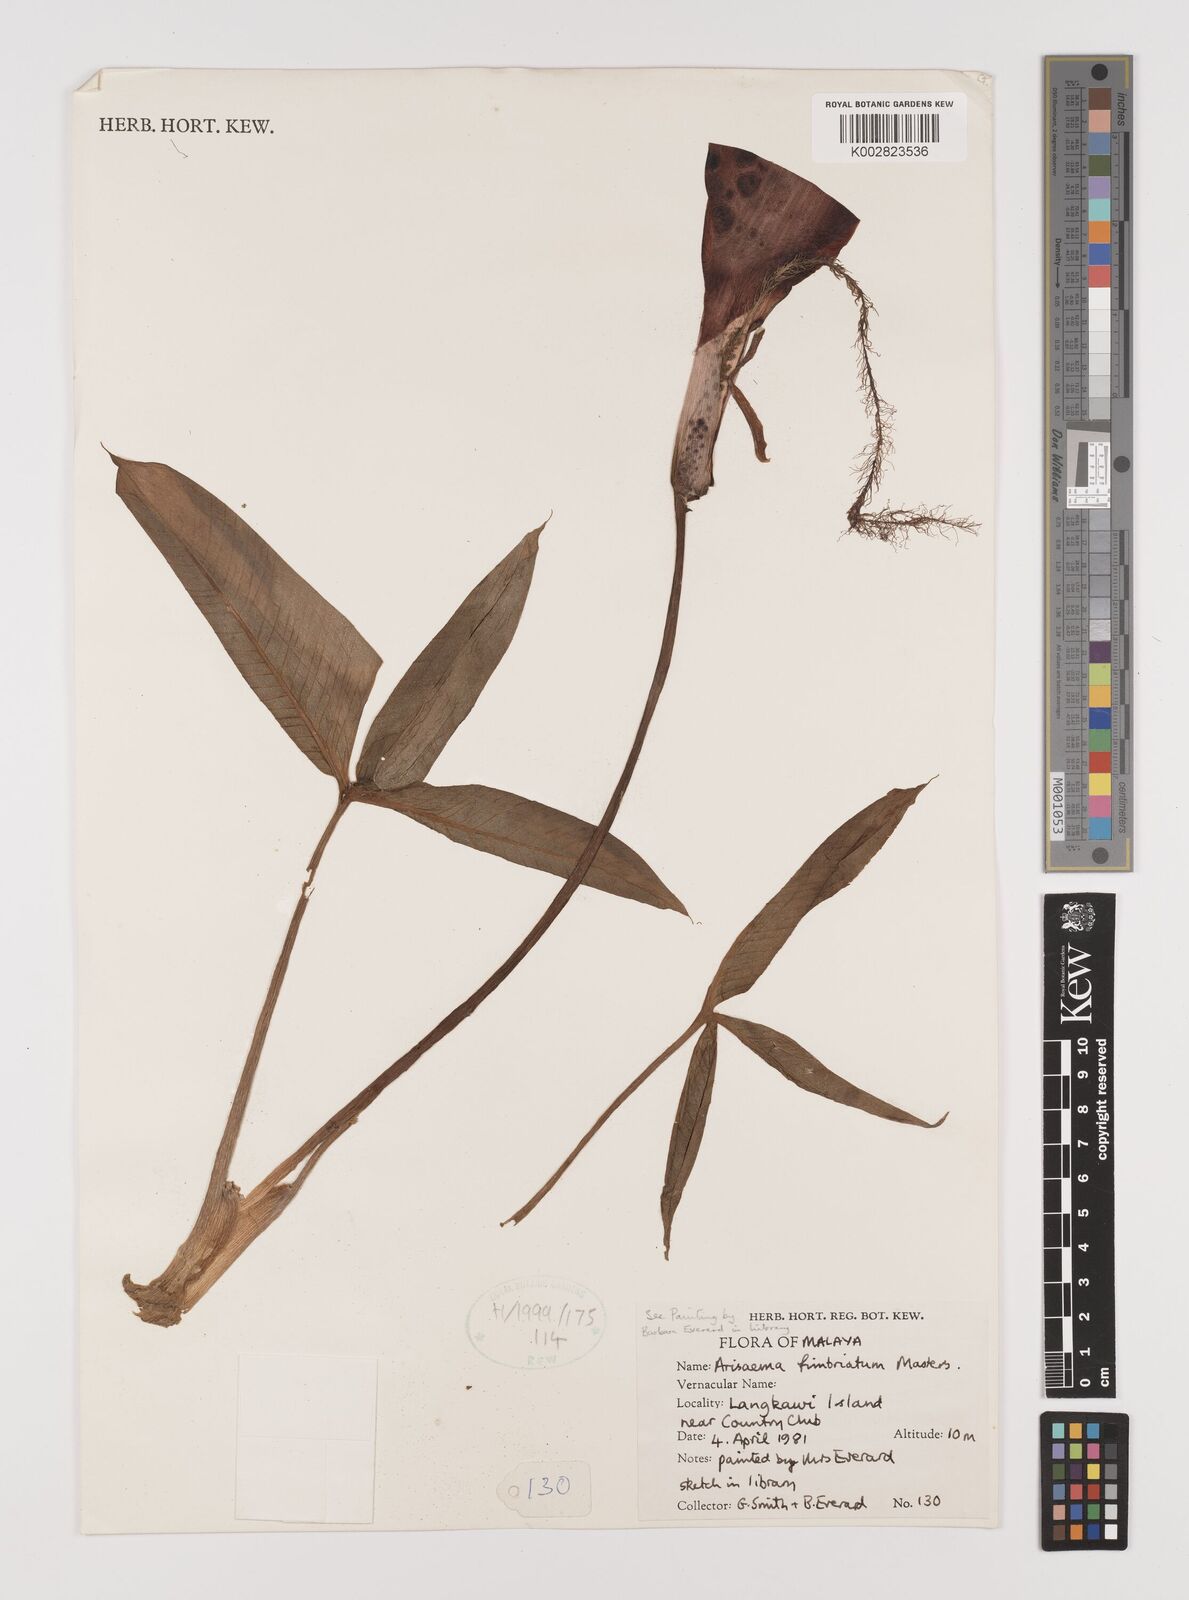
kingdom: Plantae
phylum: Tracheophyta
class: Liliopsida
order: Alismatales
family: Araceae
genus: Arisaema
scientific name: Arisaema fimbriatum
